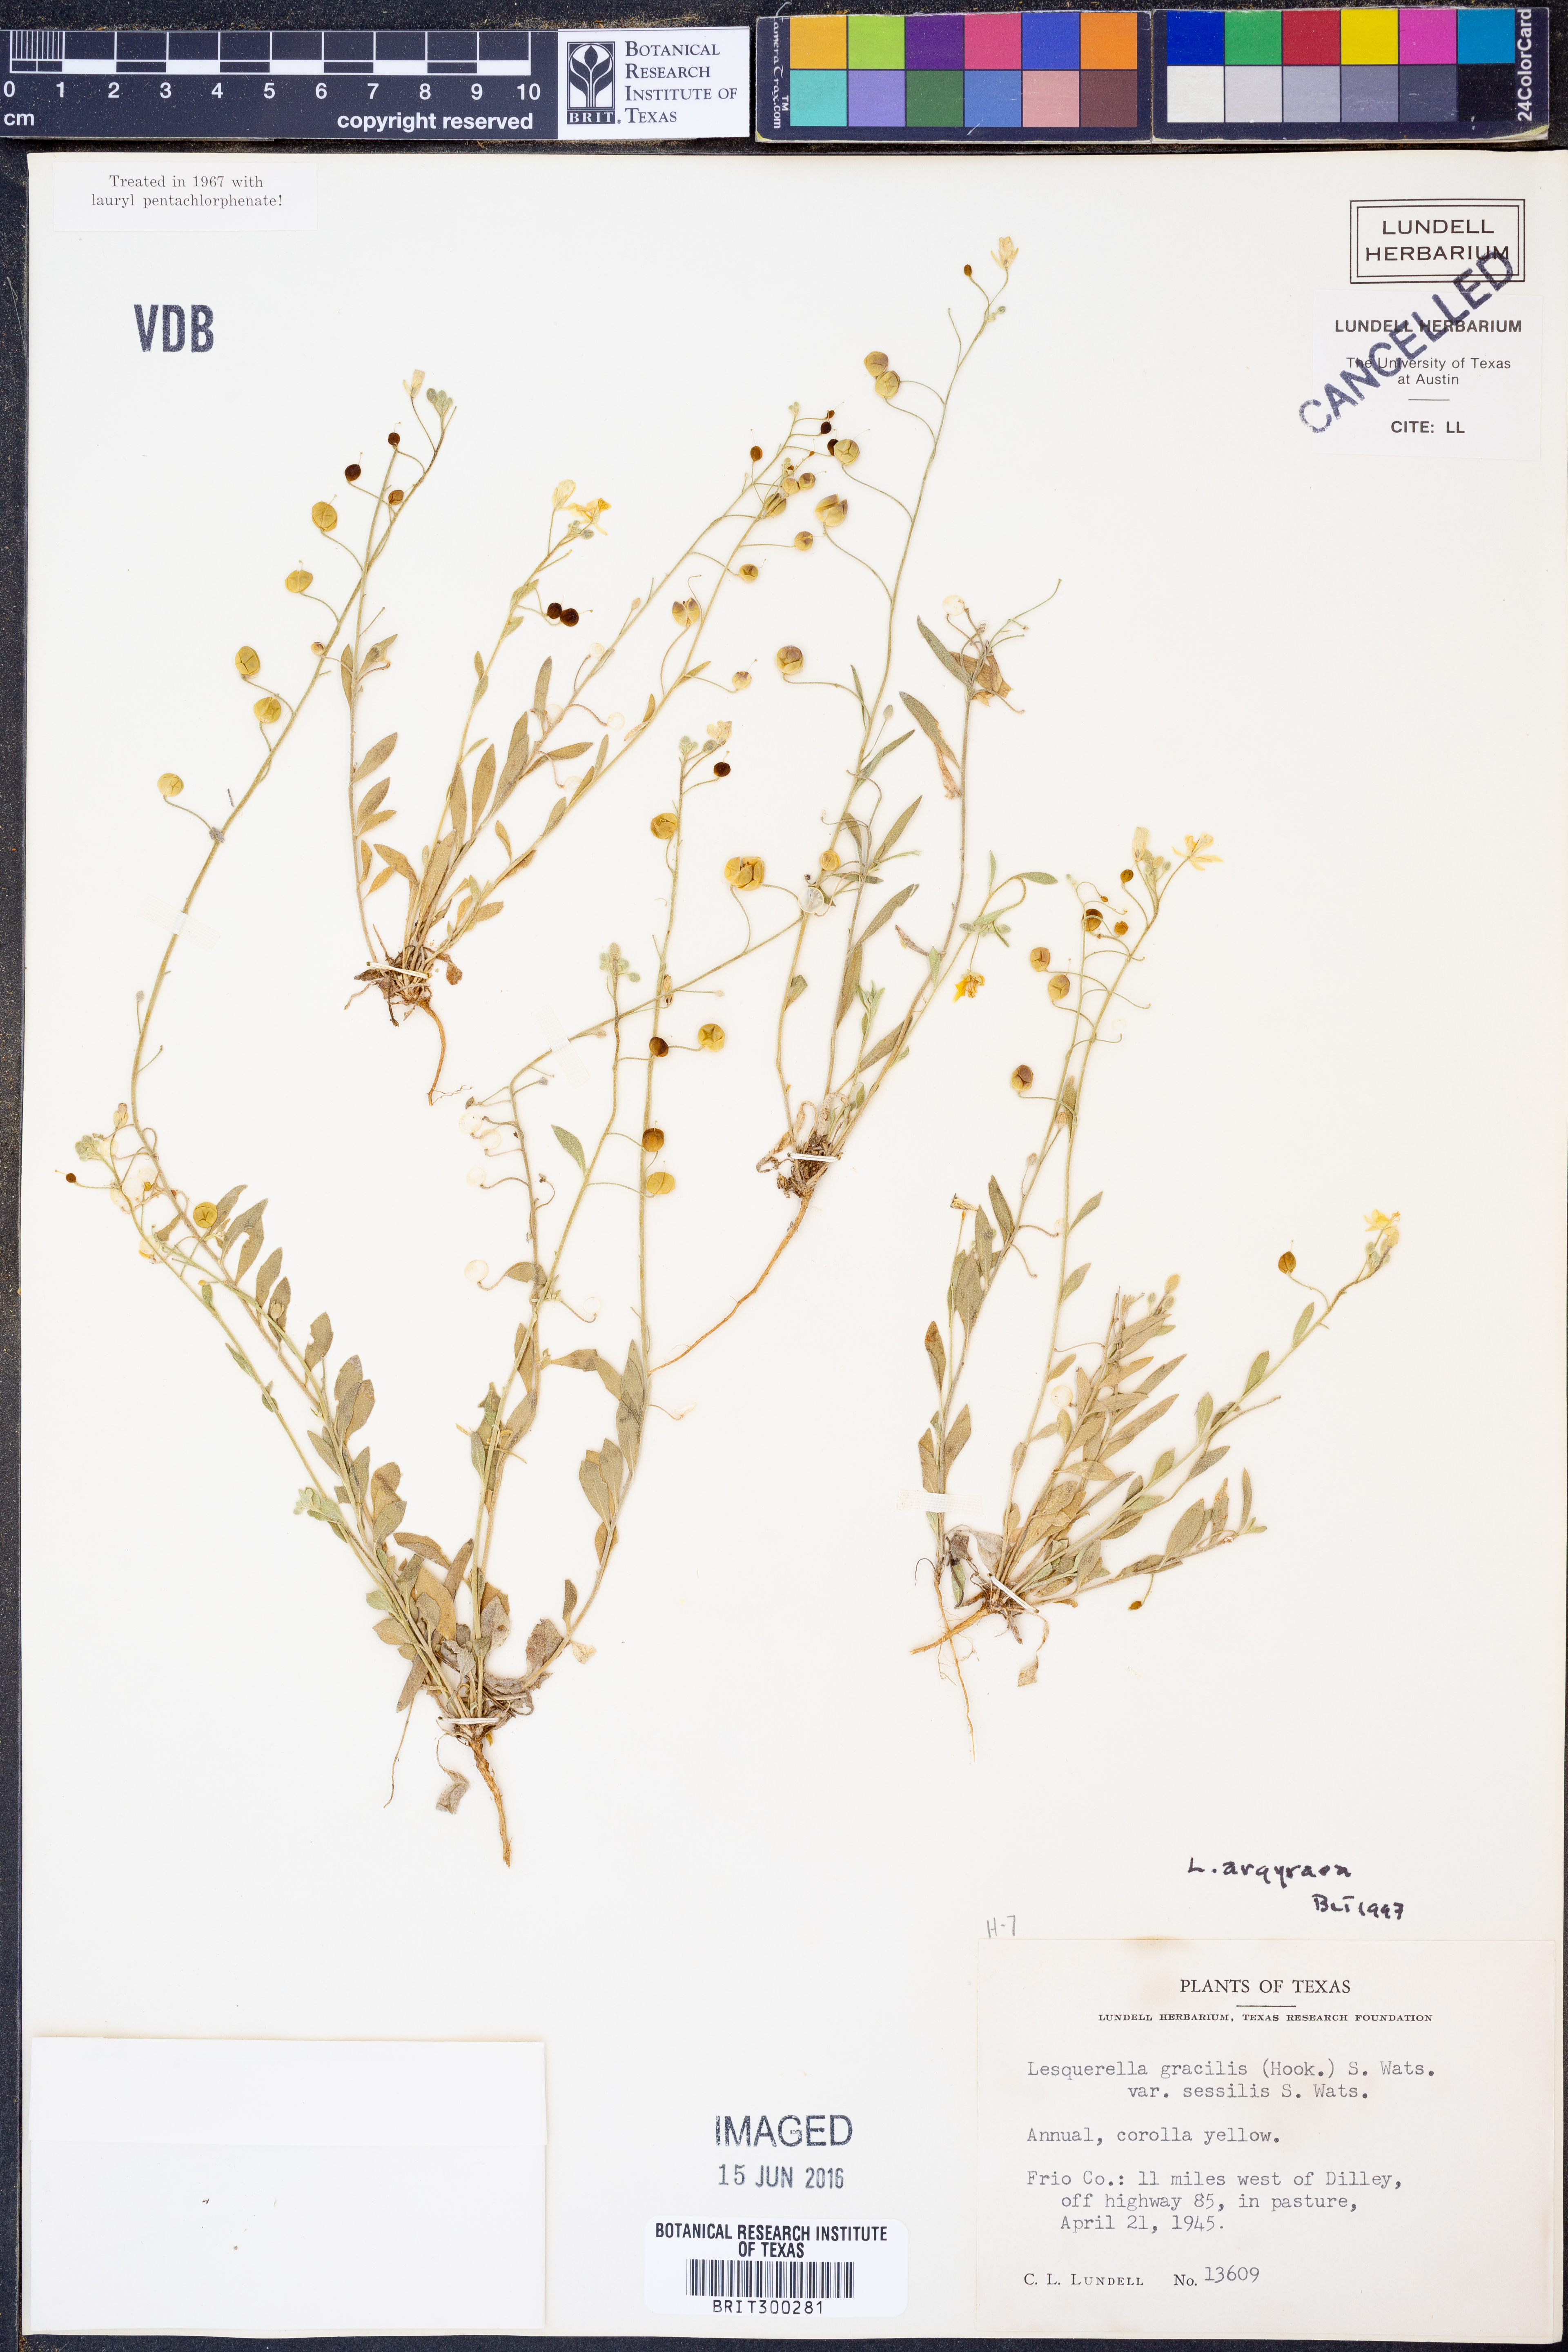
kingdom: Plantae
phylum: Tracheophyta
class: Magnoliopsida
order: Brassicales
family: Brassicaceae
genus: Physaria
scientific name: Physaria argyraea
